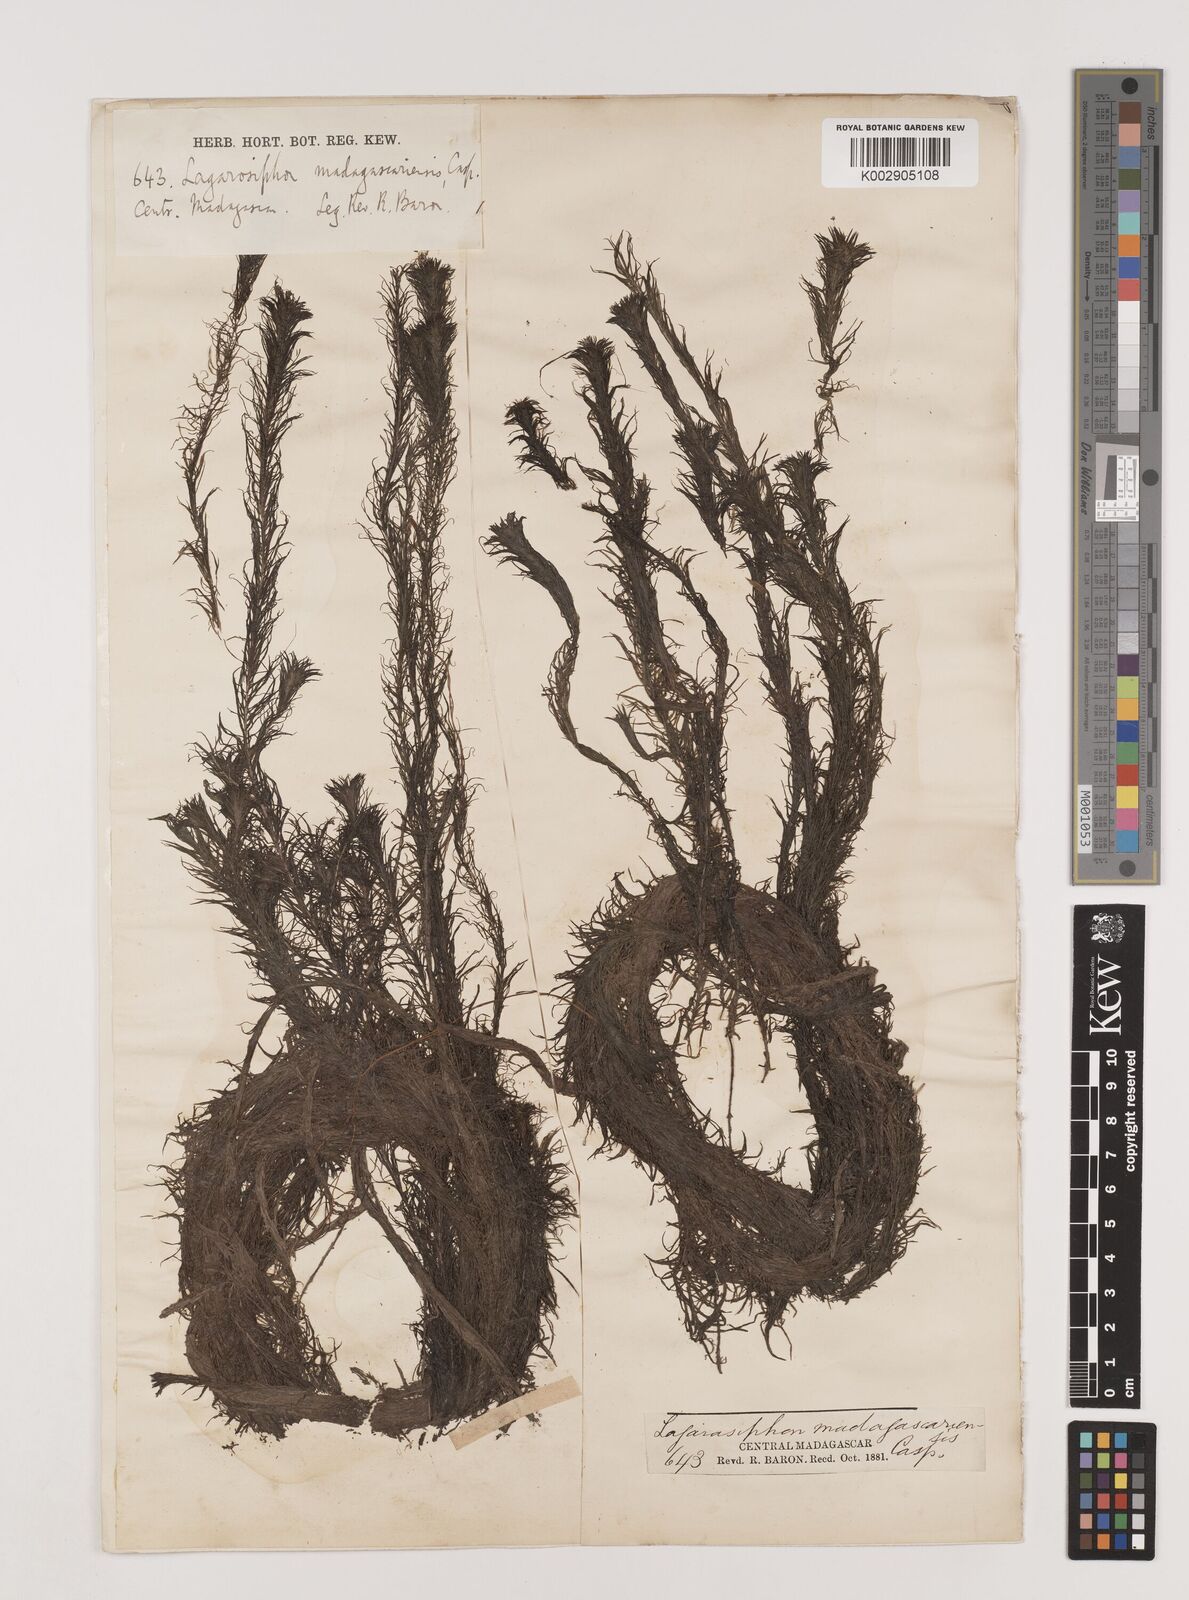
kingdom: Plantae
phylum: Tracheophyta
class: Liliopsida
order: Alismatales
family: Hydrocharitaceae
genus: Lagarosiphon
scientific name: Lagarosiphon madagascariensis
